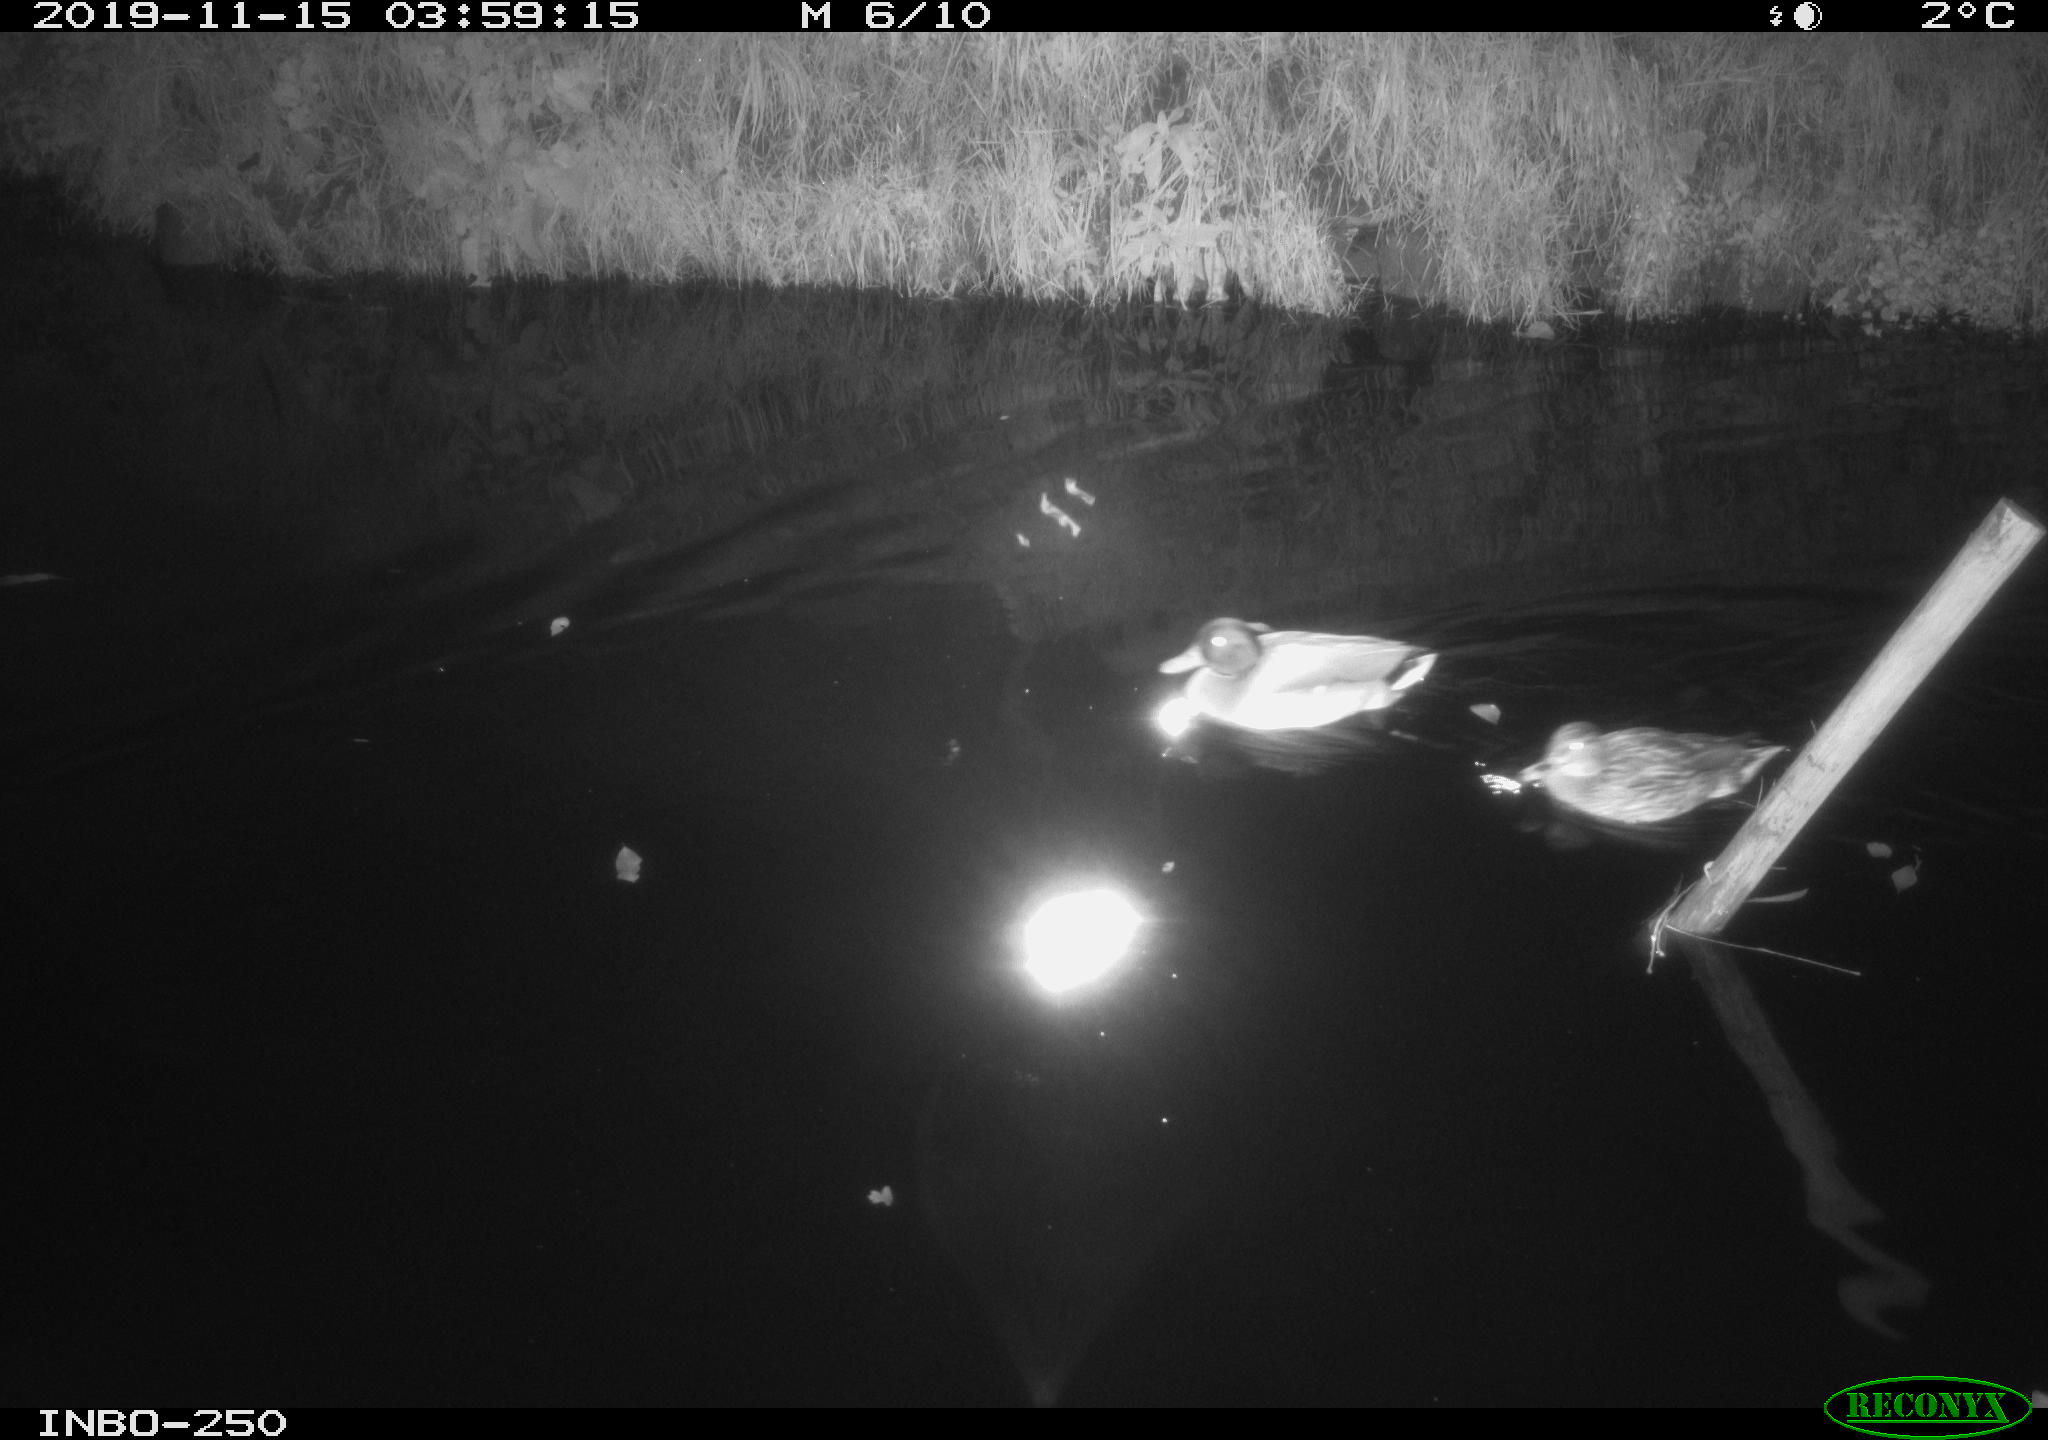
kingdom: Animalia
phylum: Chordata
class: Aves
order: Anseriformes
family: Anatidae
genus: Anas
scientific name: Anas platyrhynchos
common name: Mallard
